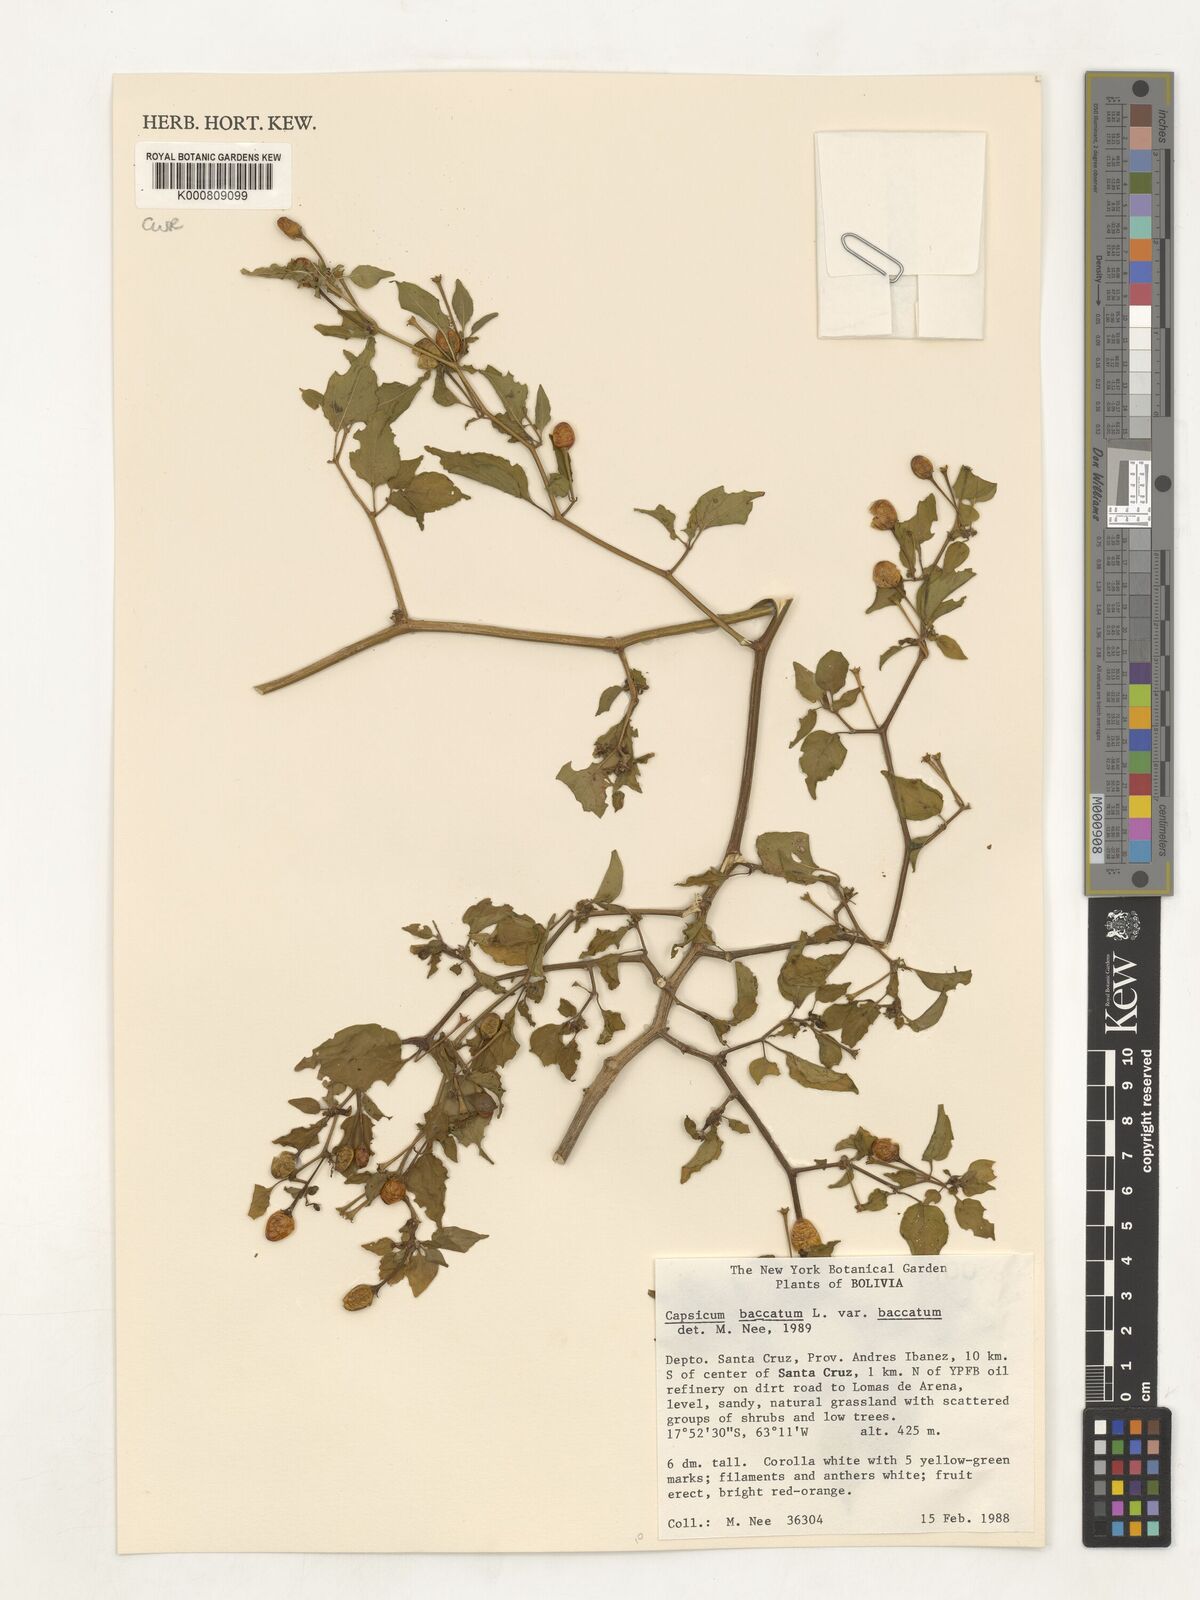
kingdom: Plantae
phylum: Tracheophyta
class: Magnoliopsida
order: Solanales
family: Solanaceae
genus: Capsicum
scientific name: Capsicum baccatum
